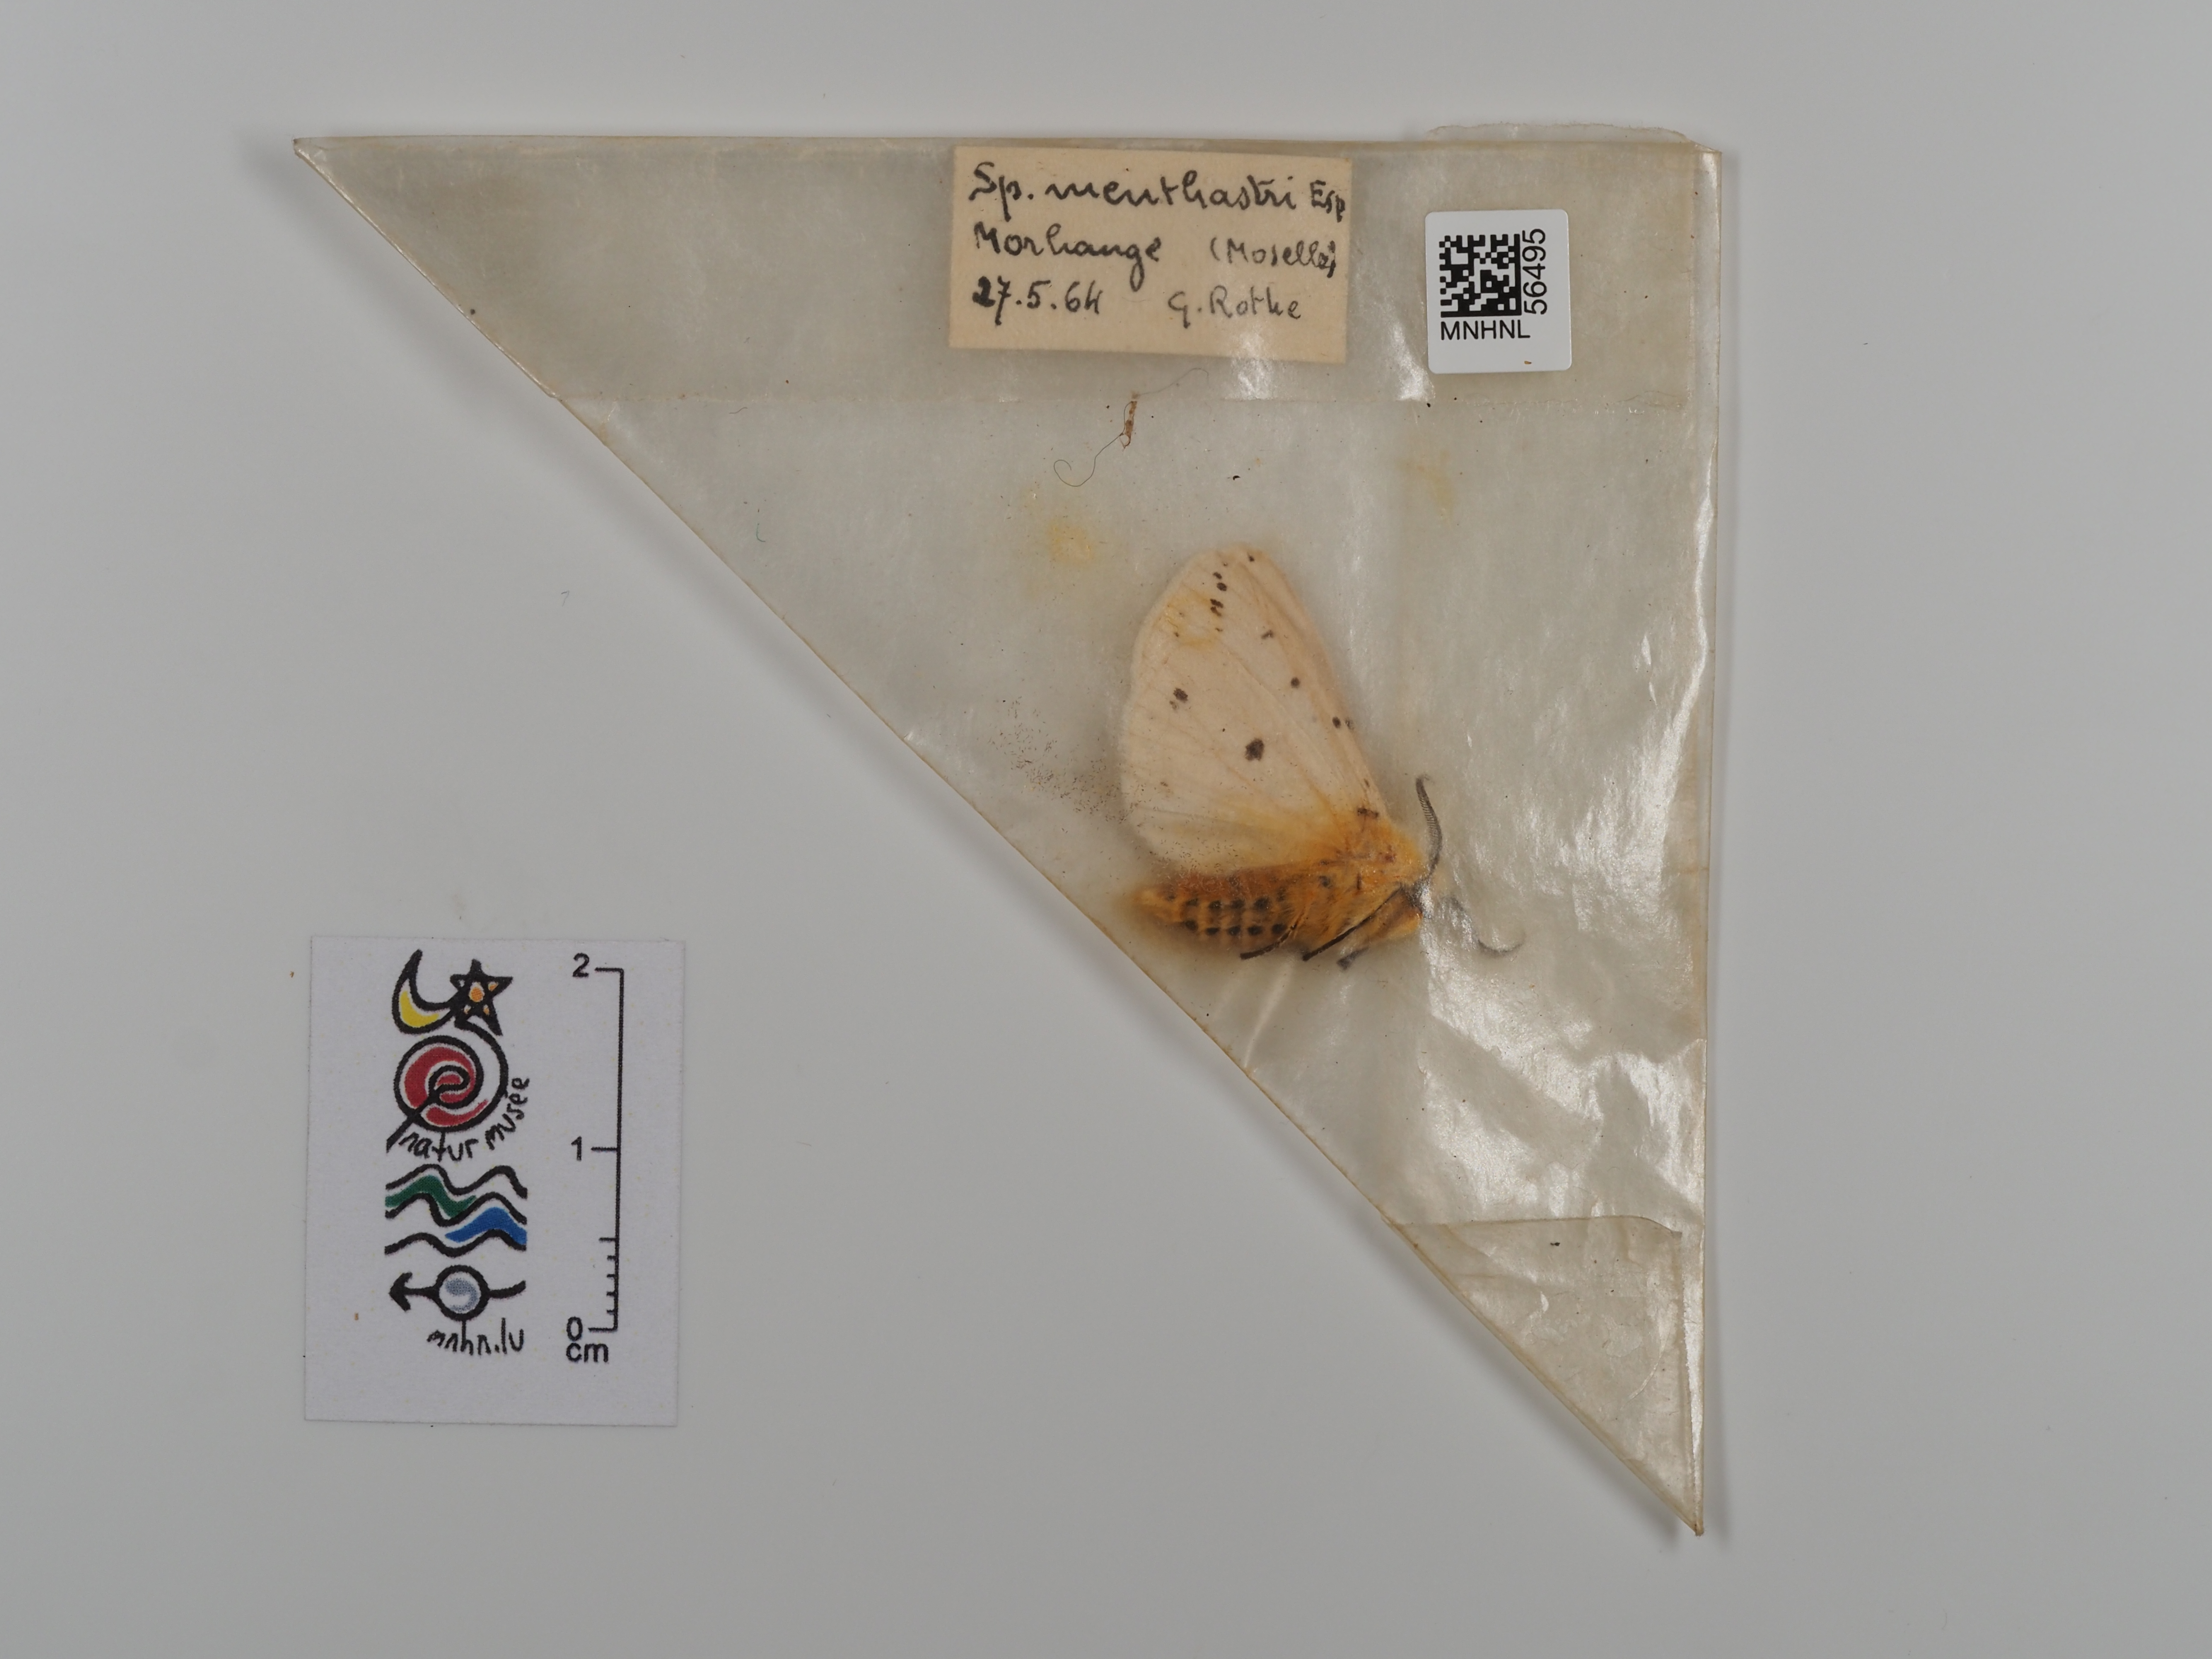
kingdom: Animalia
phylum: Arthropoda
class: Insecta
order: Lepidoptera
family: Erebidae
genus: Spilosoma
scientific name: Spilosoma lubricipeda
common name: White ermine
